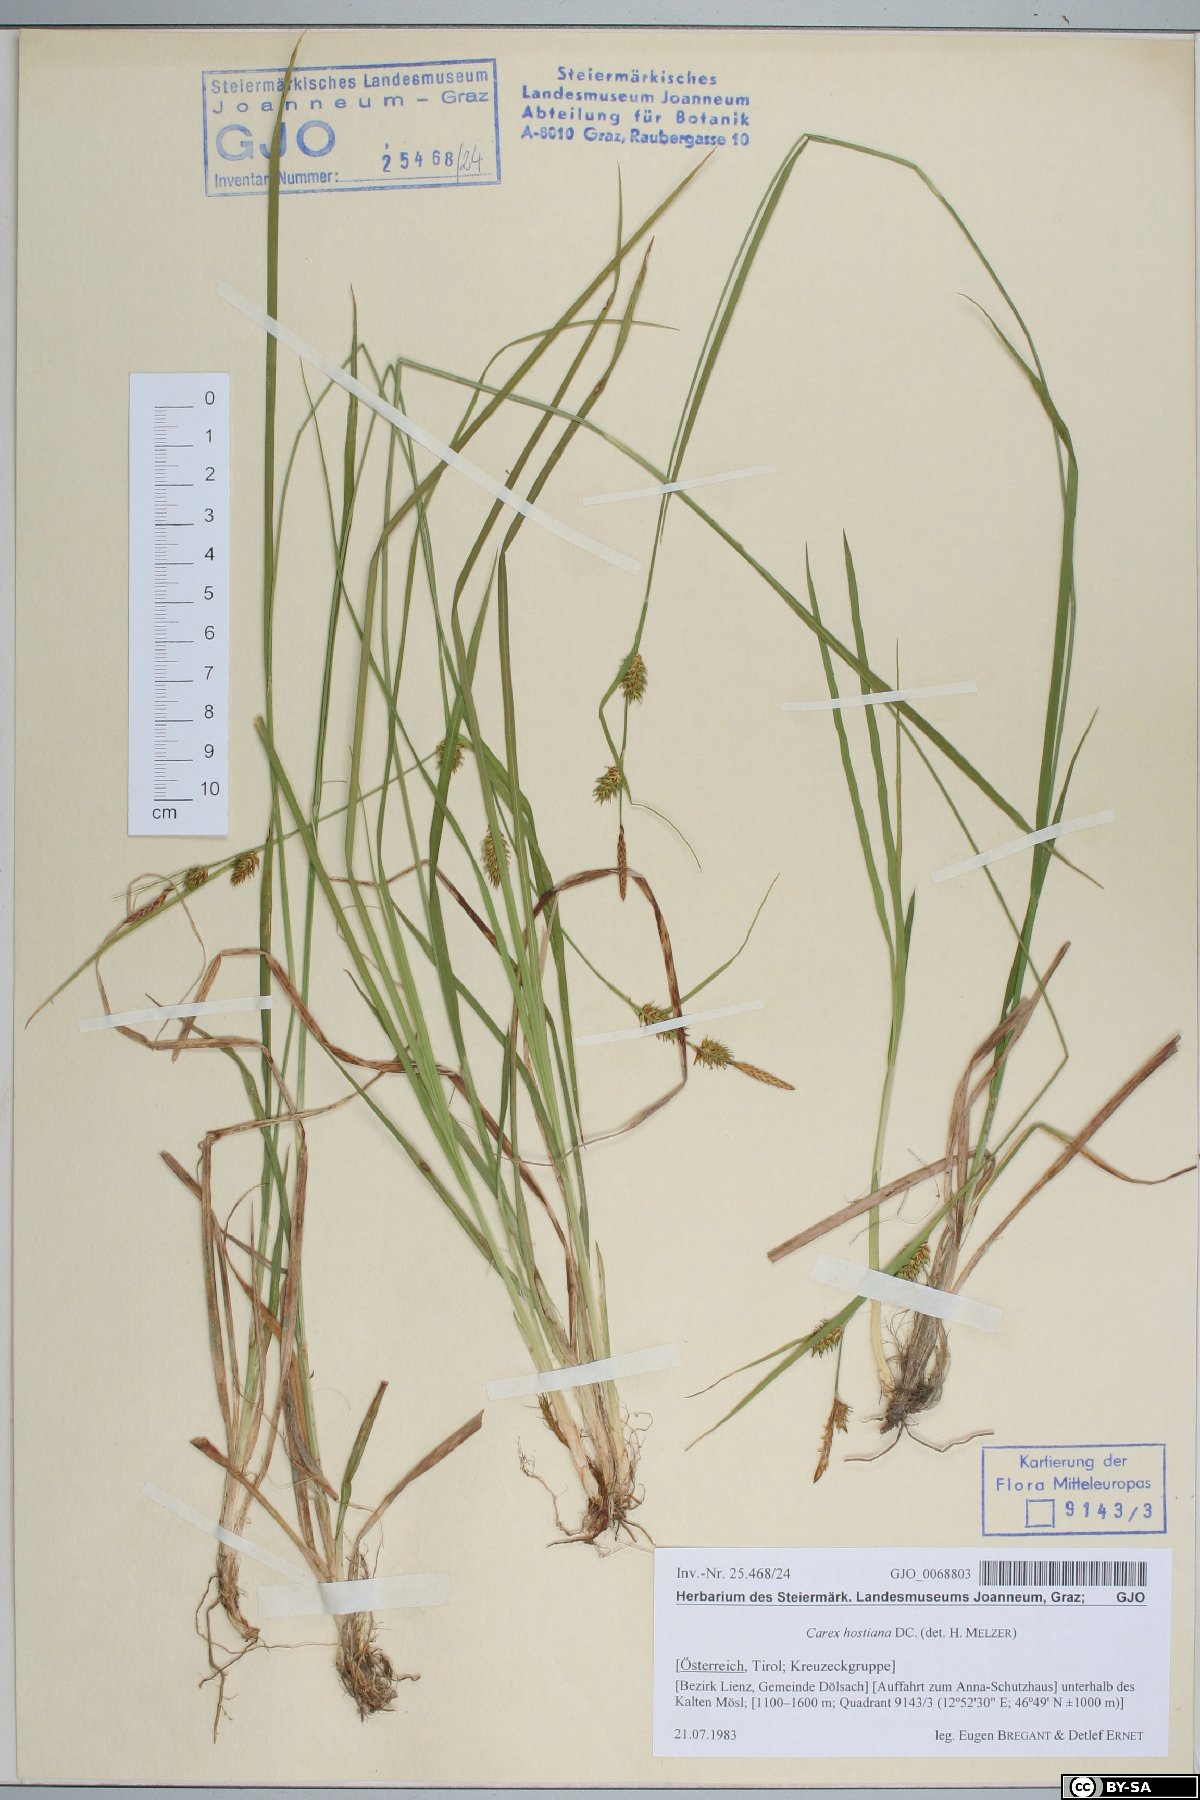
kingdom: Plantae
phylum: Tracheophyta
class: Liliopsida
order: Poales
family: Cyperaceae
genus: Carex
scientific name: Carex hostiana
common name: Tawny sedge
